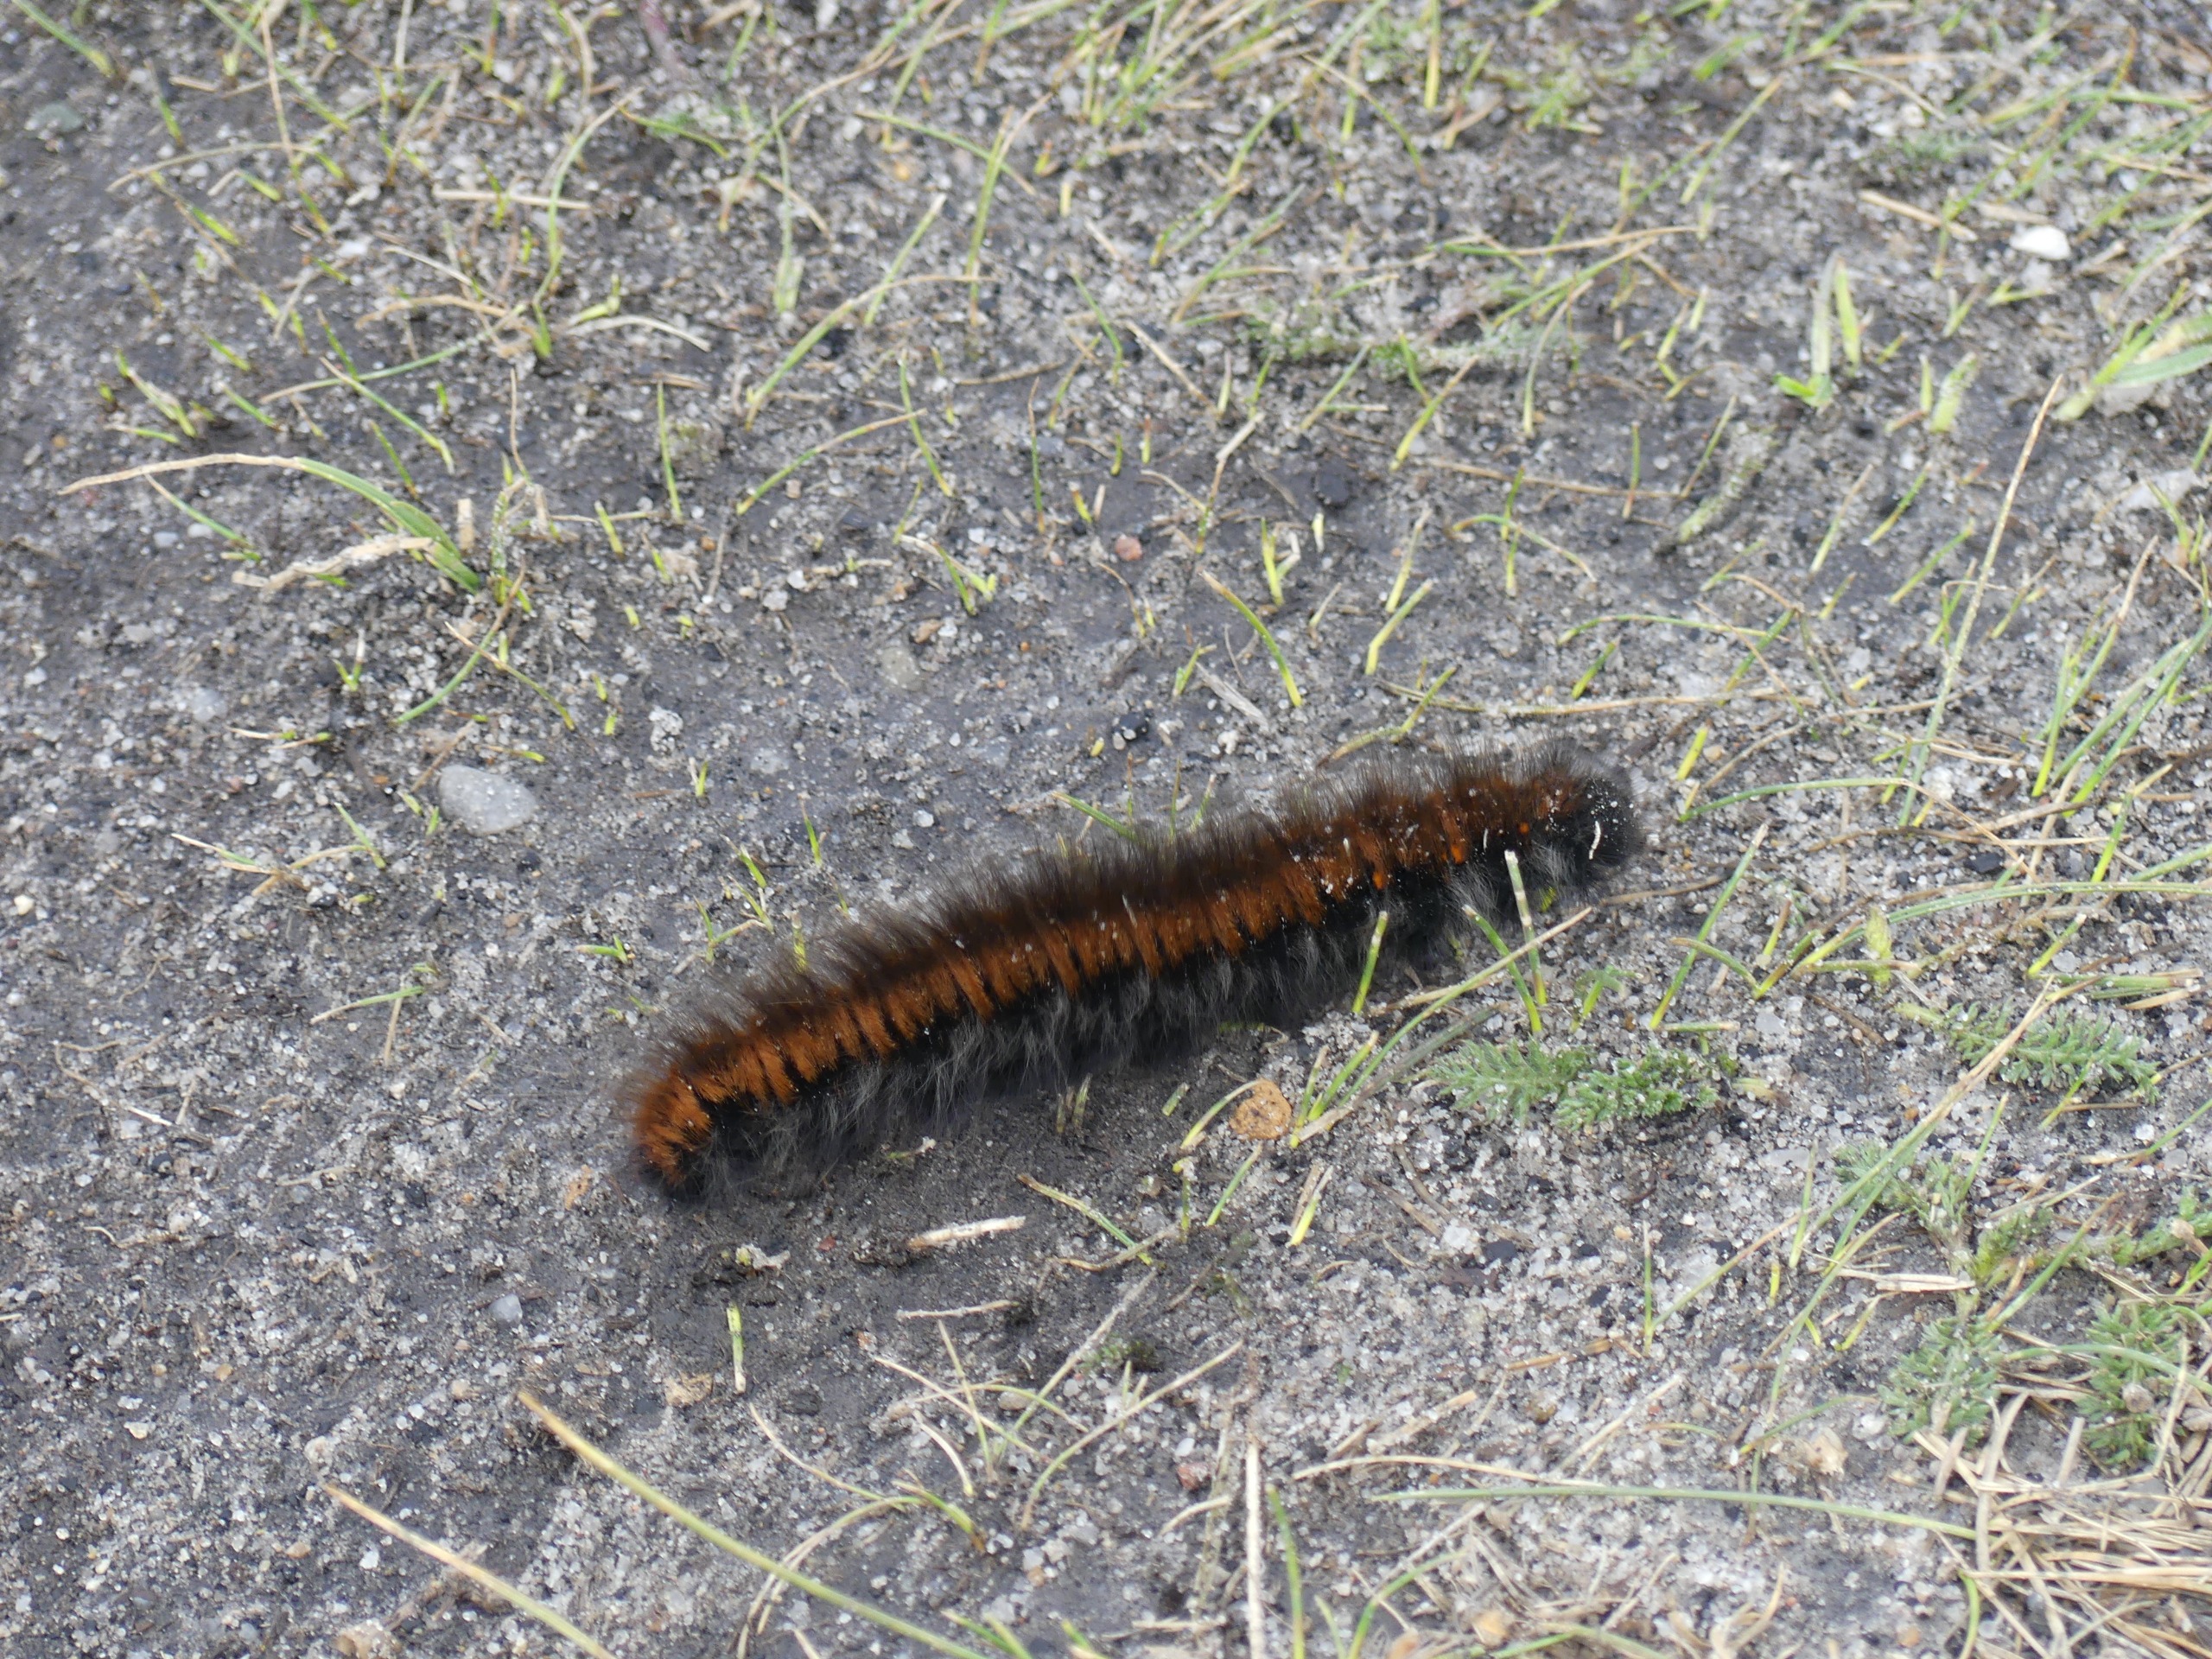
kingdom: Animalia
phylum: Arthropoda
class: Insecta
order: Lepidoptera
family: Lasiocampidae
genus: Macrothylacia
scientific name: Macrothylacia rubi
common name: Brombærspinder
